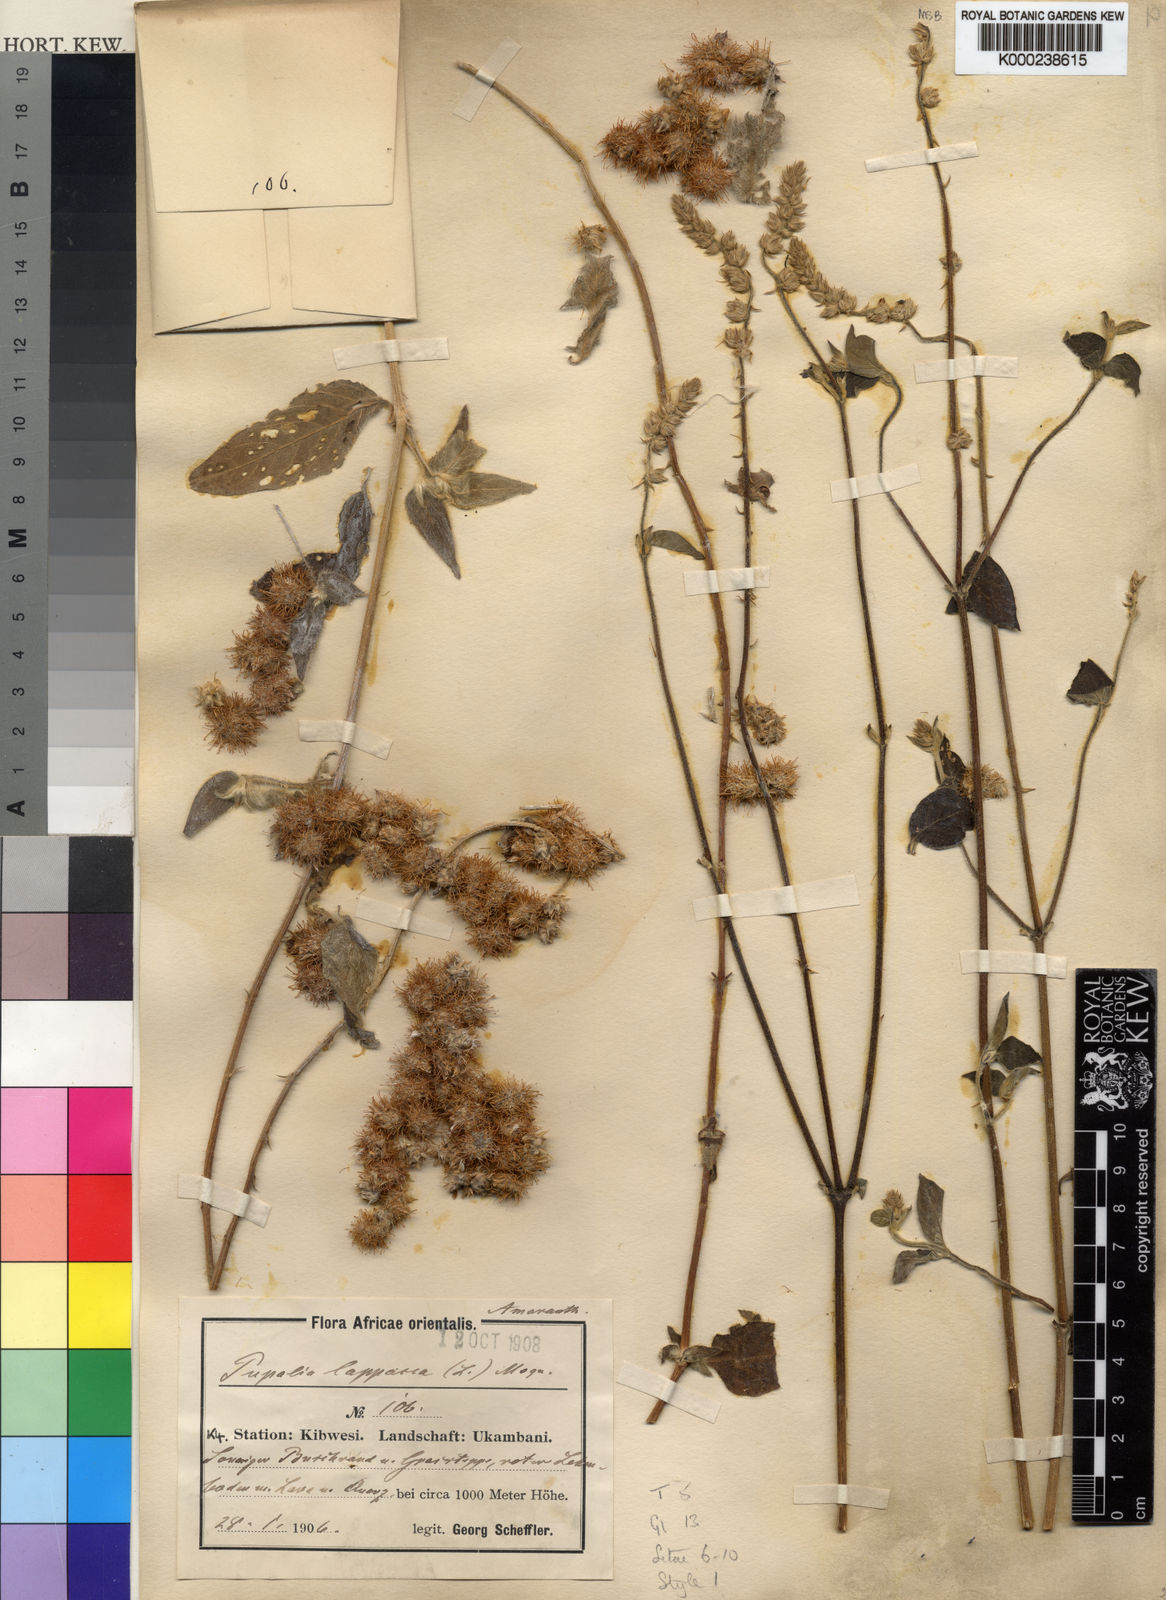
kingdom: Plantae
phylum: Tracheophyta
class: Magnoliopsida
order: Caryophyllales
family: Amaranthaceae
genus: Pupalia
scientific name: Pupalia lappacea
